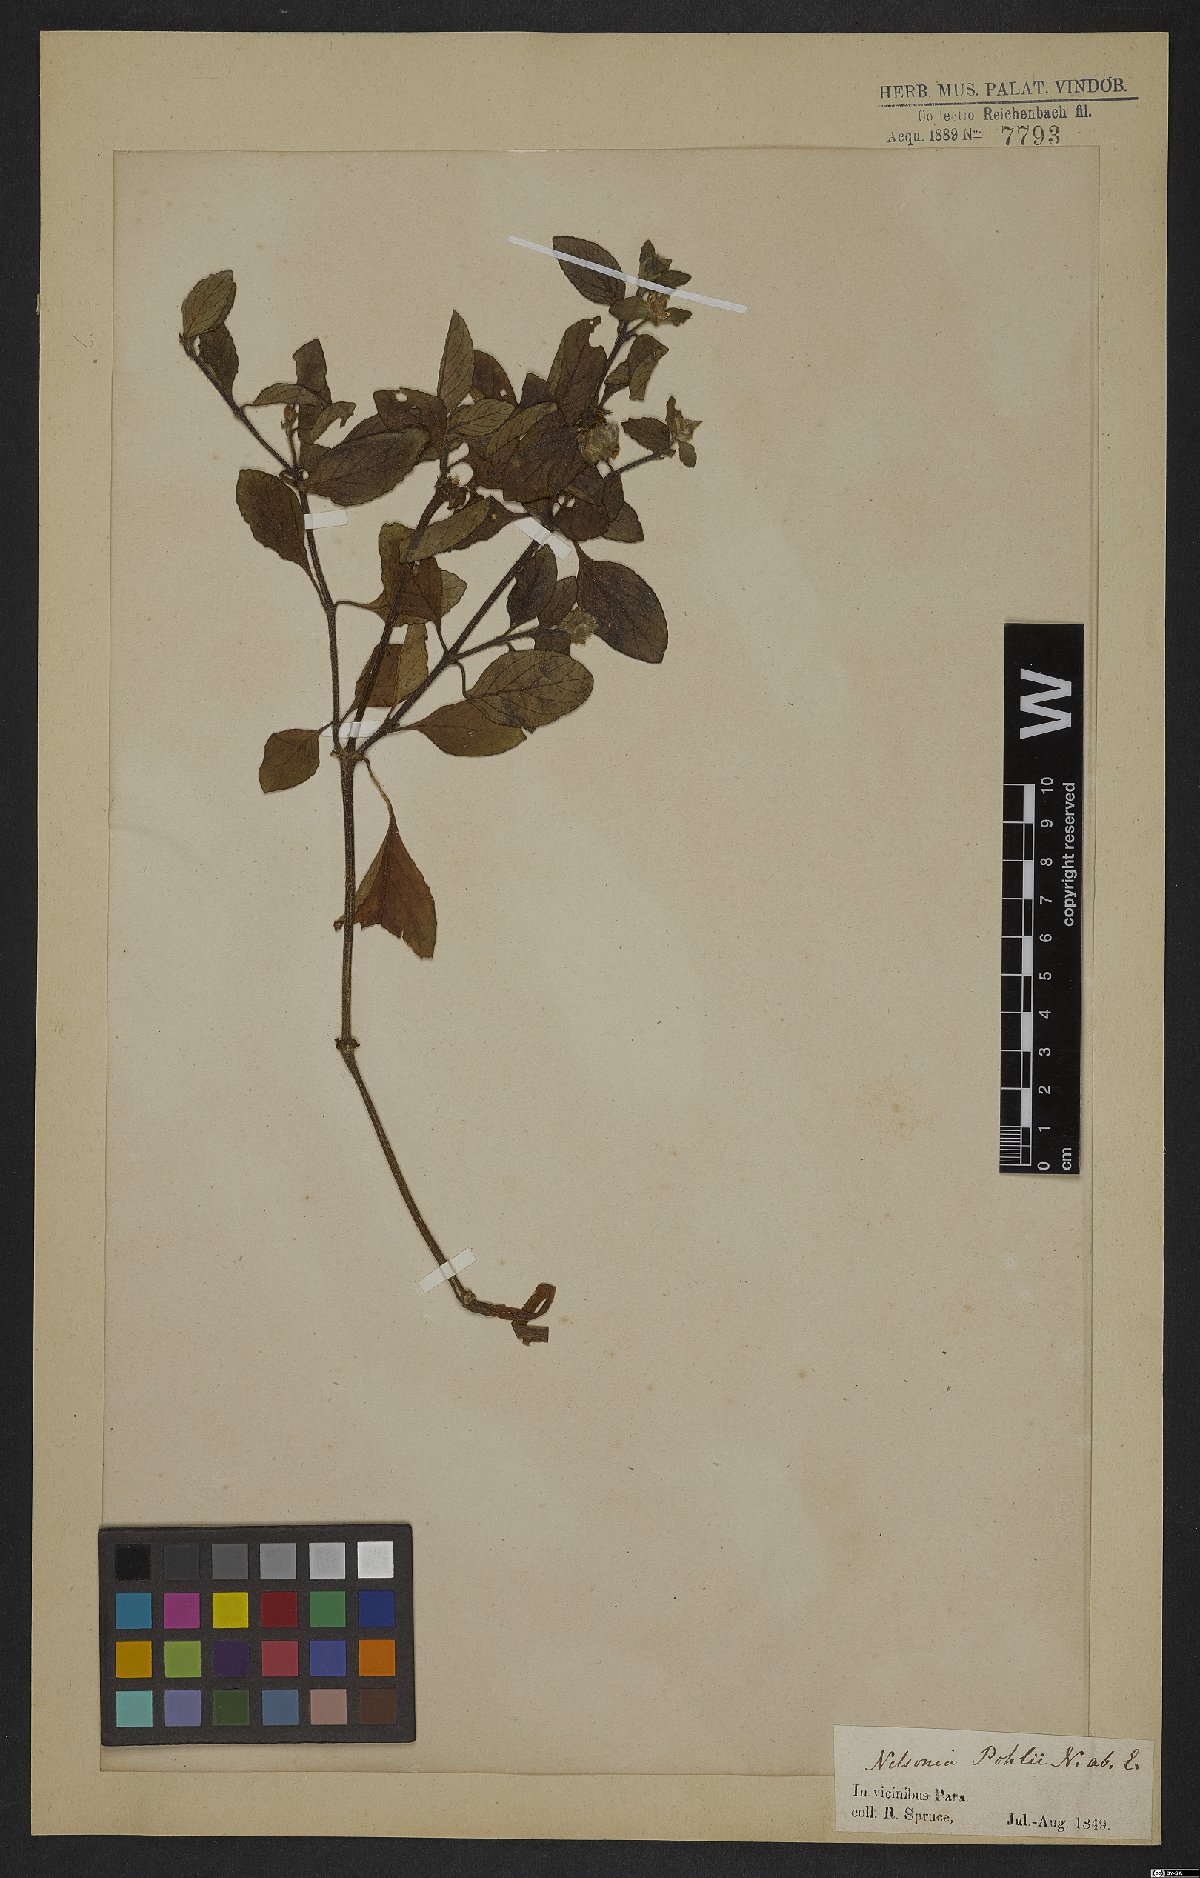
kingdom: Plantae
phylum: Tracheophyta
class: Magnoliopsida
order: Lamiales
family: Acanthaceae
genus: Nelsonia
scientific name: Nelsonia canescens
